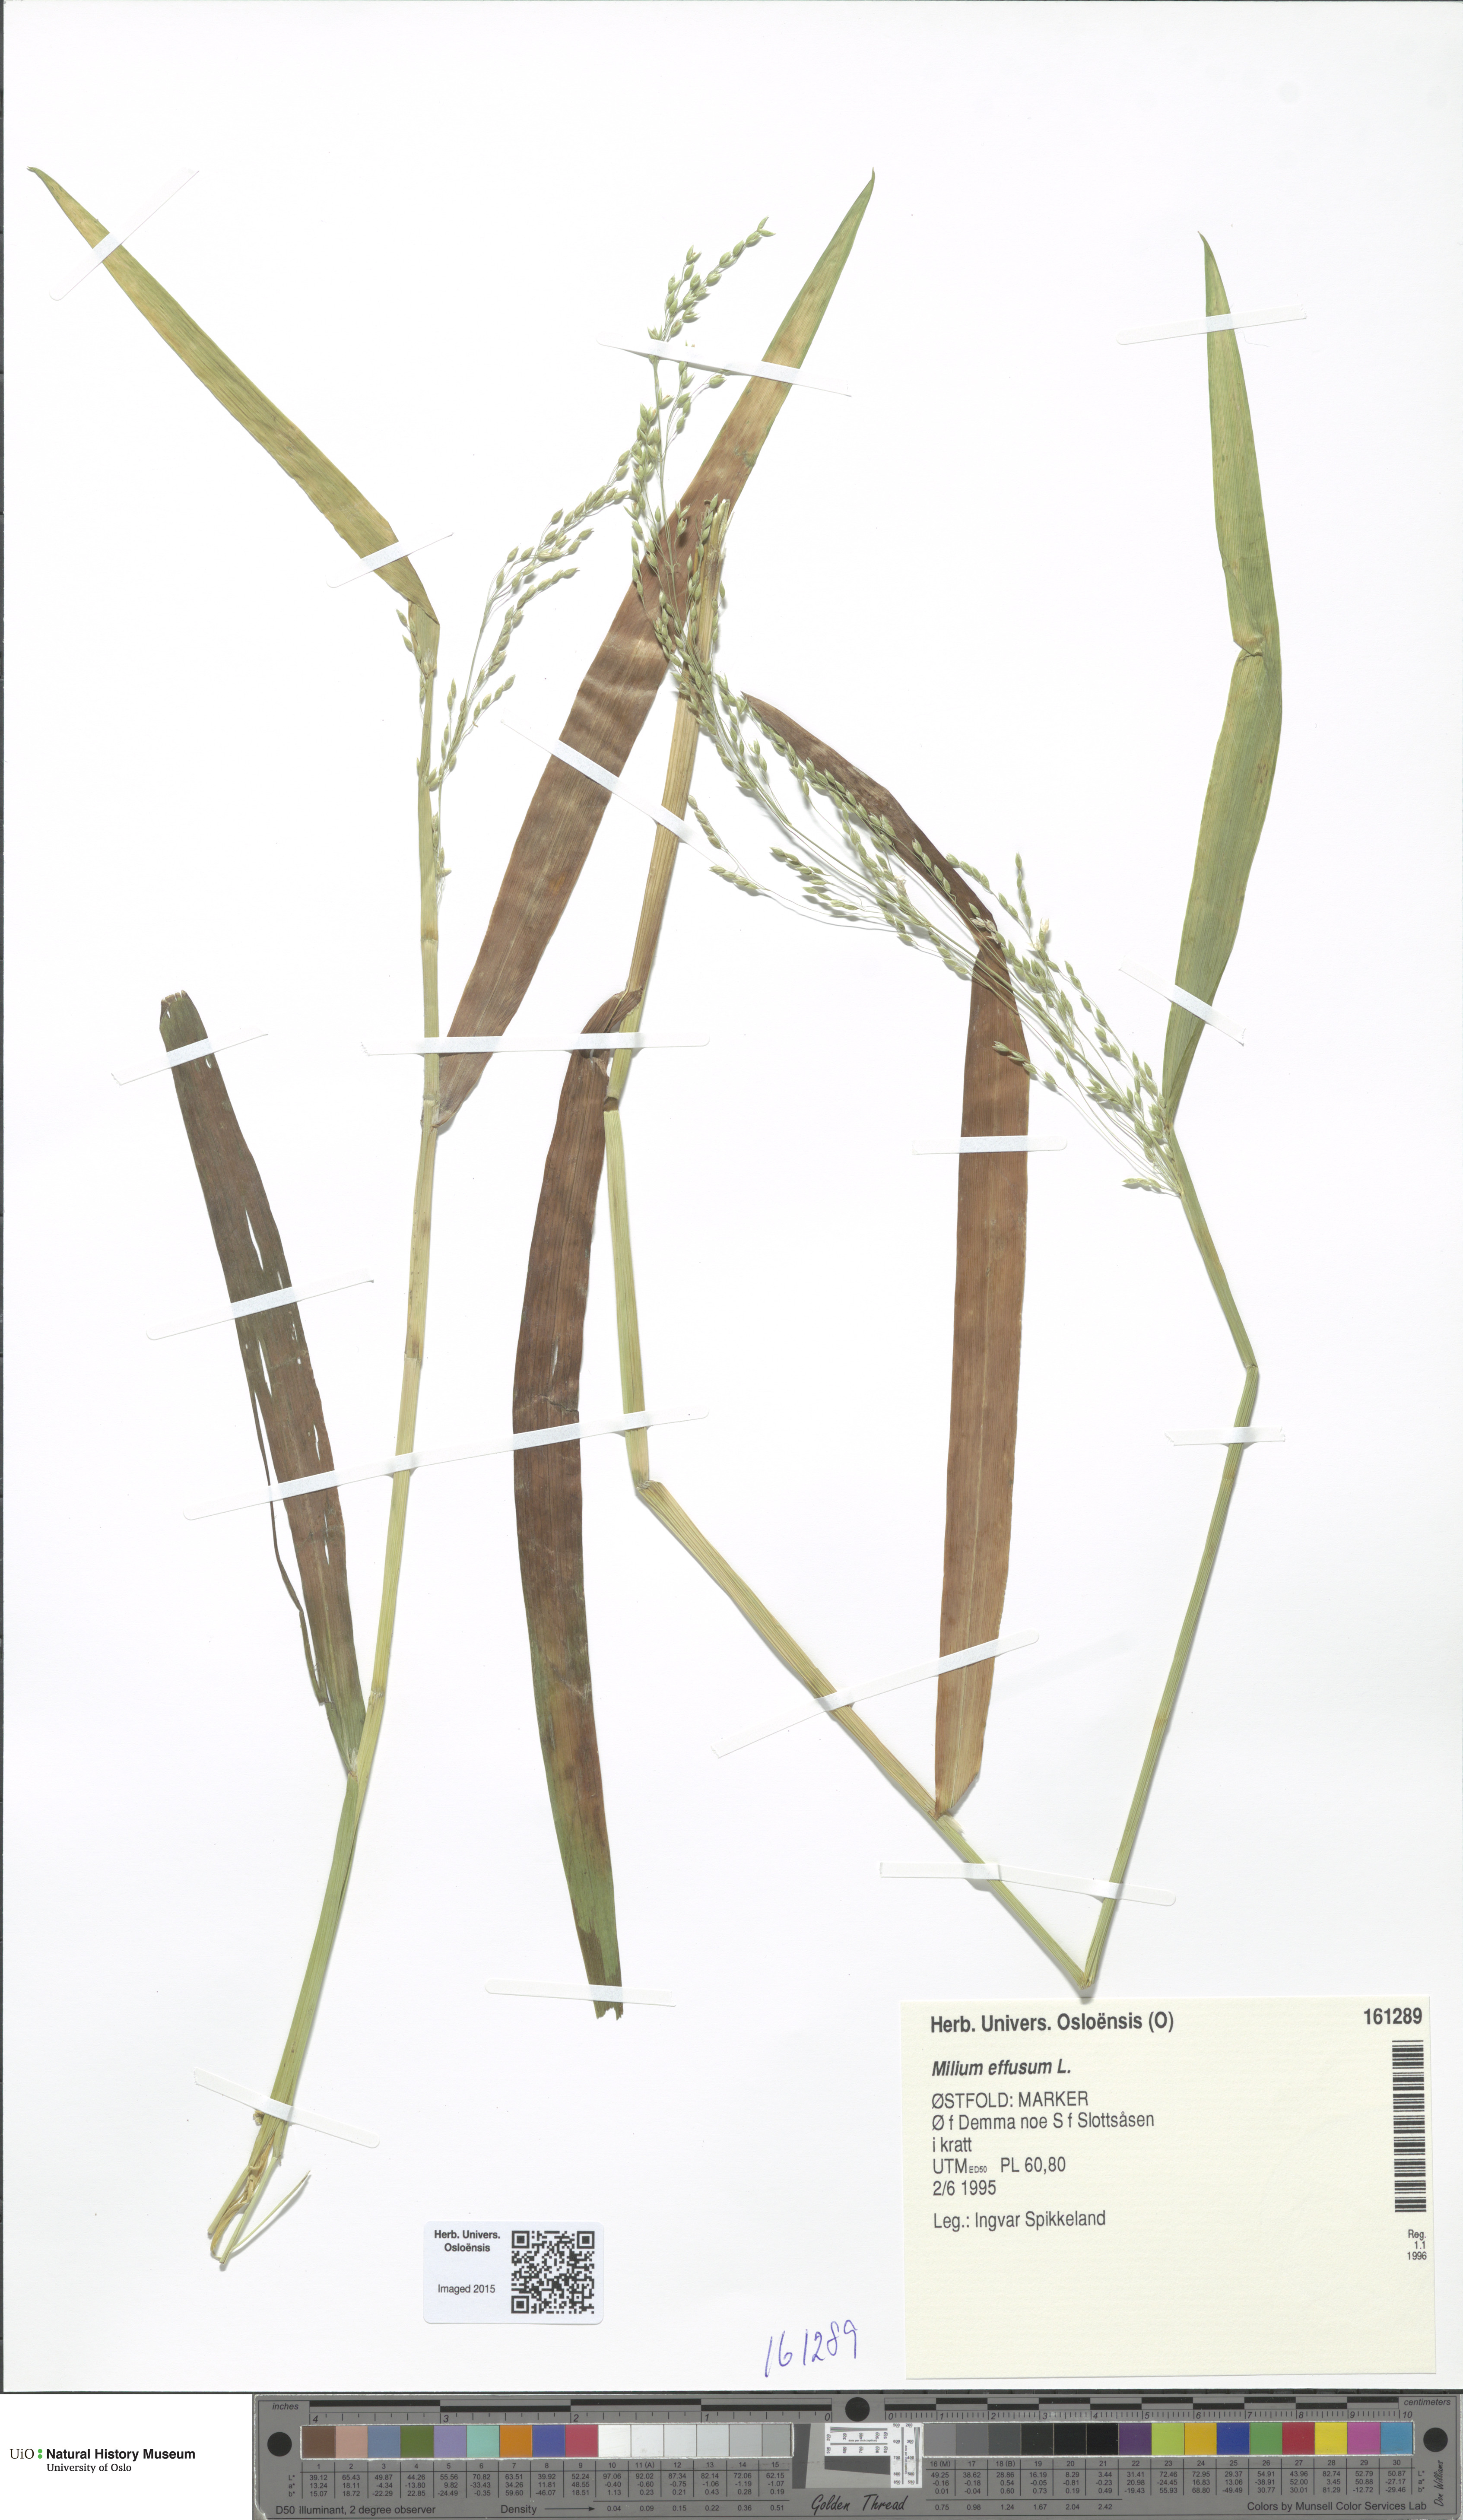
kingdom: Plantae
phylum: Tracheophyta
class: Liliopsida
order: Poales
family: Poaceae
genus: Milium
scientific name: Milium effusum
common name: Wood millet
